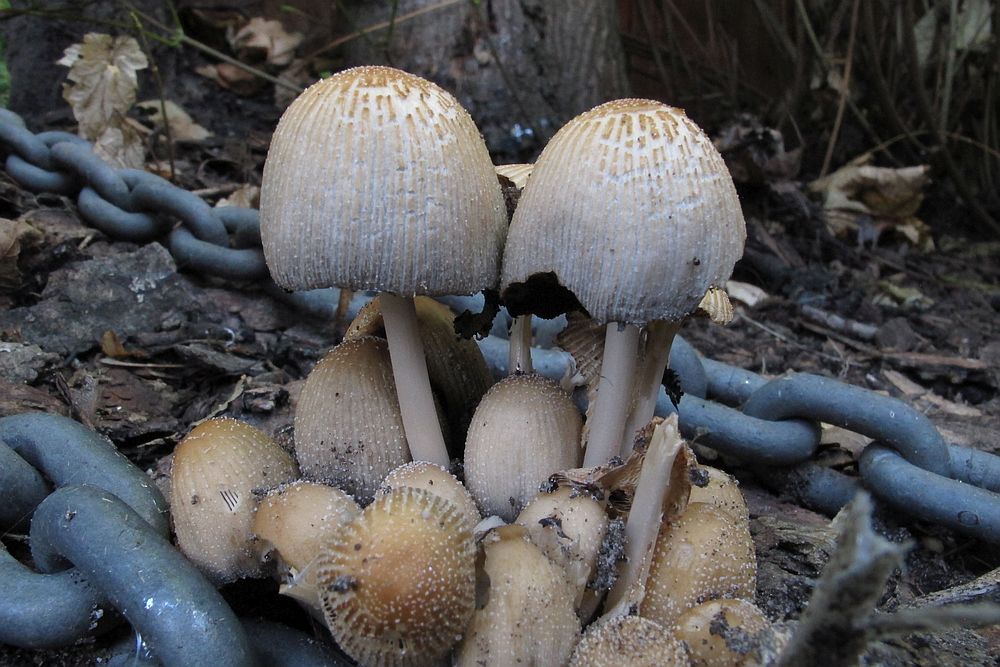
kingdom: Fungi
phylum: Basidiomycota
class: Agaricomycetes
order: Agaricales
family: Psathyrellaceae
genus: Coprinellus
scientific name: Coprinellus micaceus
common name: glimmer-blækhat
